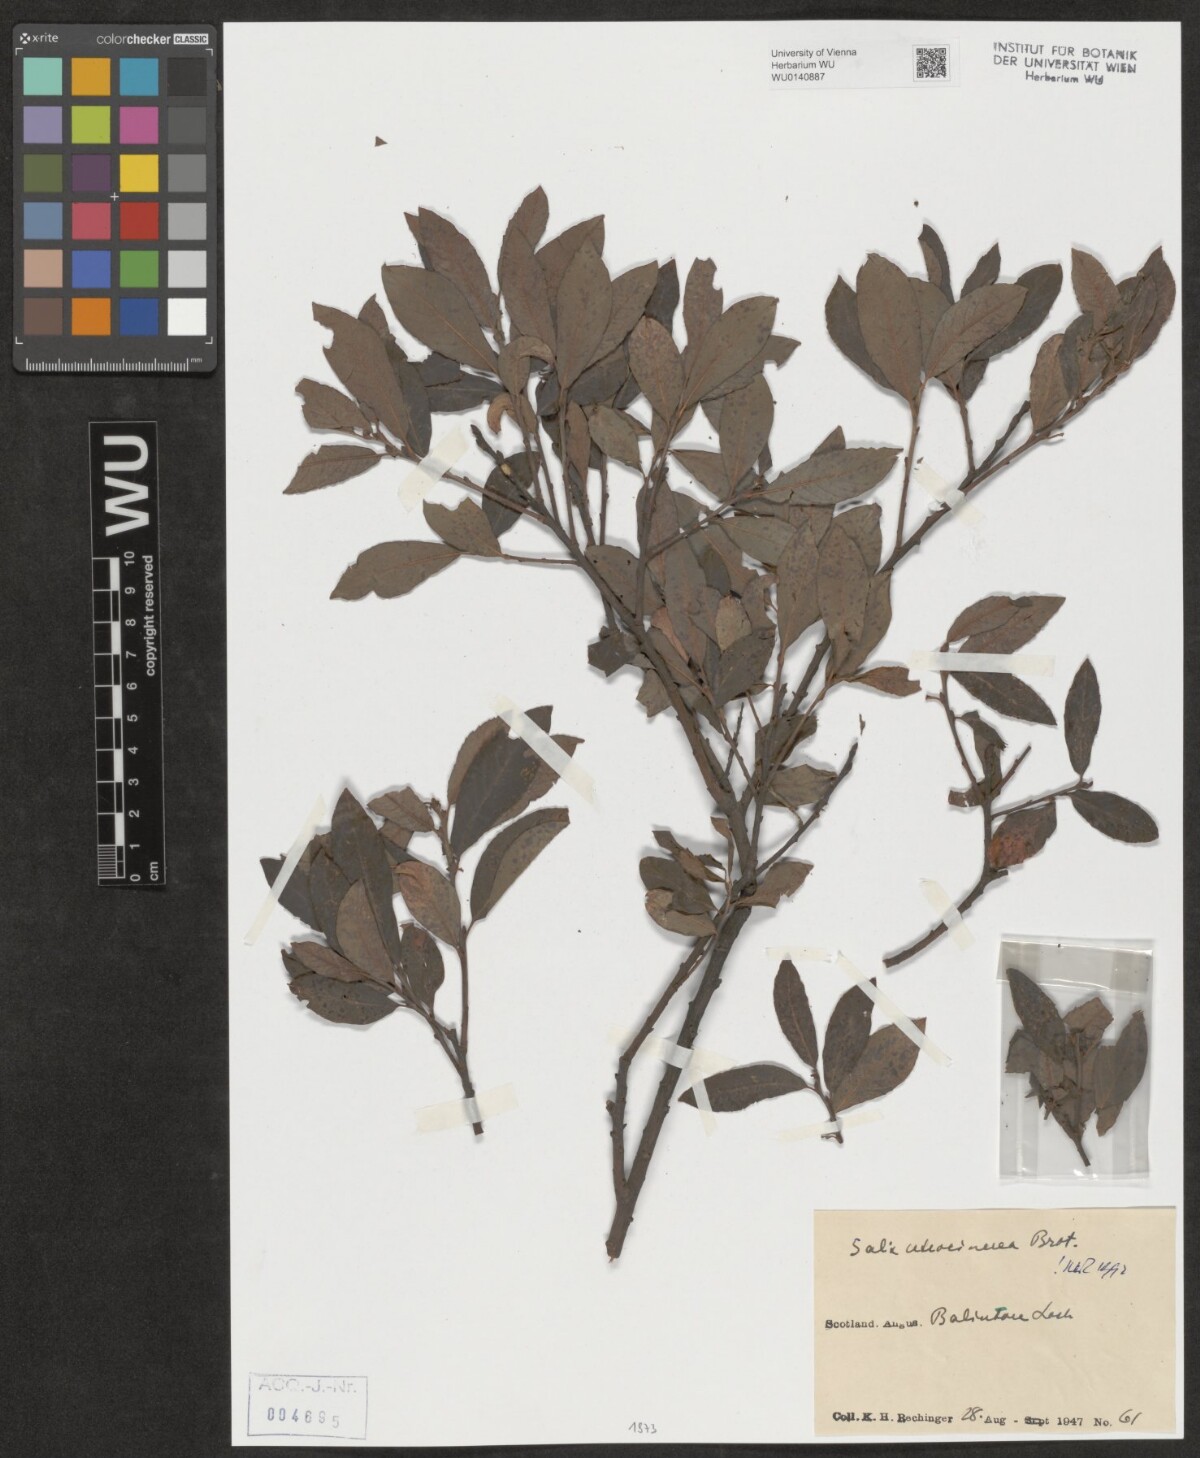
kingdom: Plantae
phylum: Tracheophyta
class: Magnoliopsida
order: Malpighiales
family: Salicaceae
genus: Salix
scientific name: Salix
